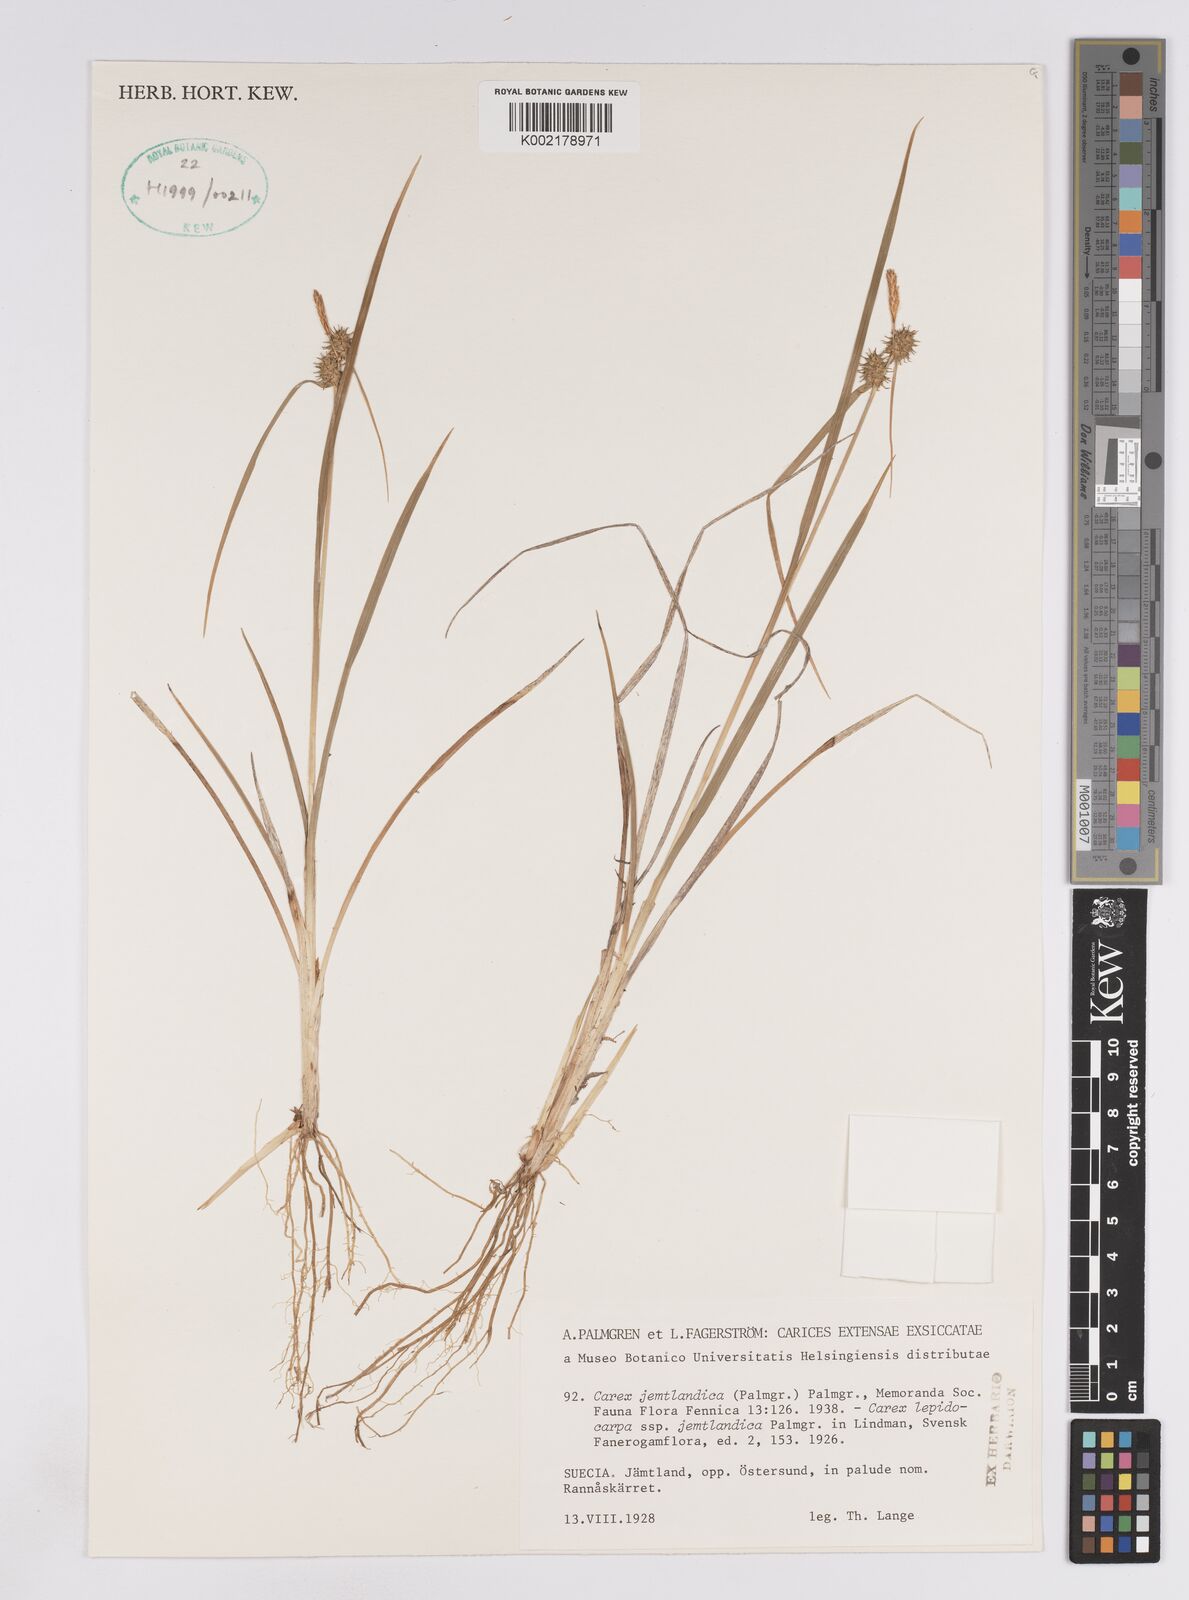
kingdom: Plantae
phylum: Tracheophyta
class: Liliopsida
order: Poales
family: Cyperaceae
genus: Carex
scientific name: Carex lepidocarpa
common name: Long-stalked yellow-sedge
